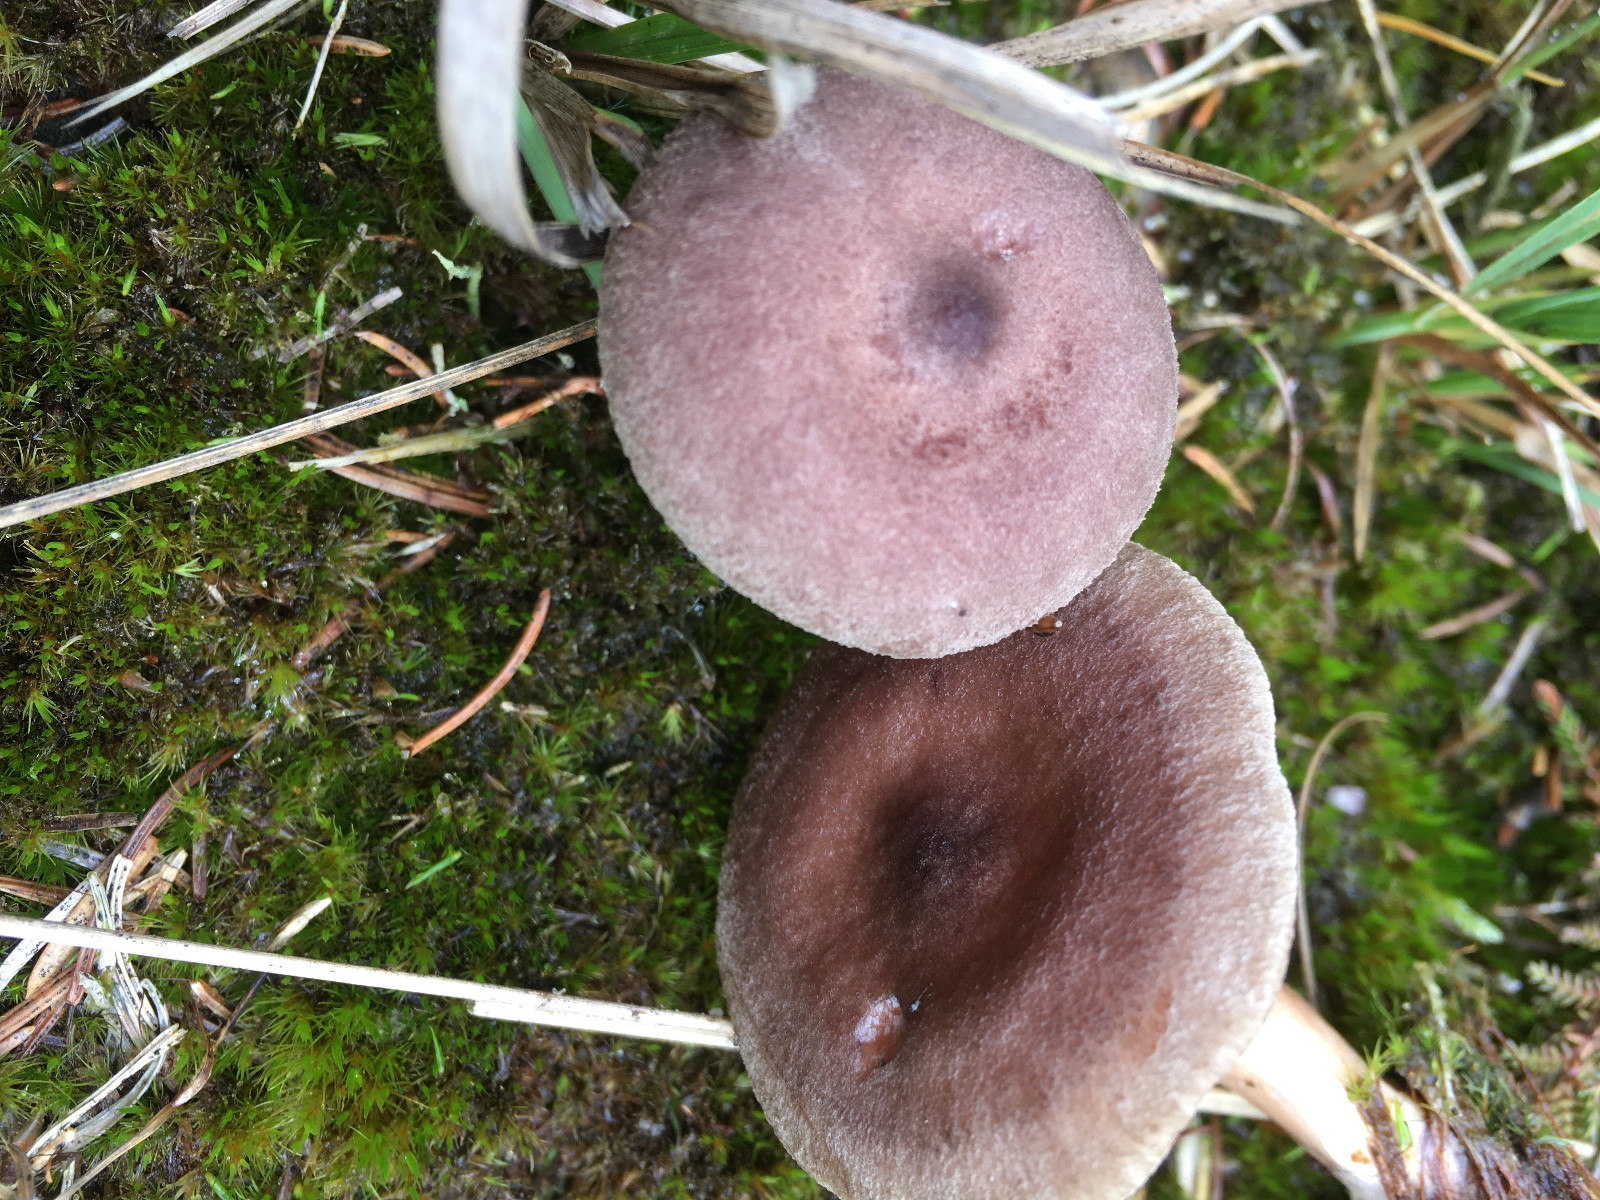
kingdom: Fungi
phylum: Basidiomycota
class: Agaricomycetes
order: Russulales
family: Russulaceae
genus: Lactarius
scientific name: Lactarius mammosus
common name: kokosbrun mælkehat
